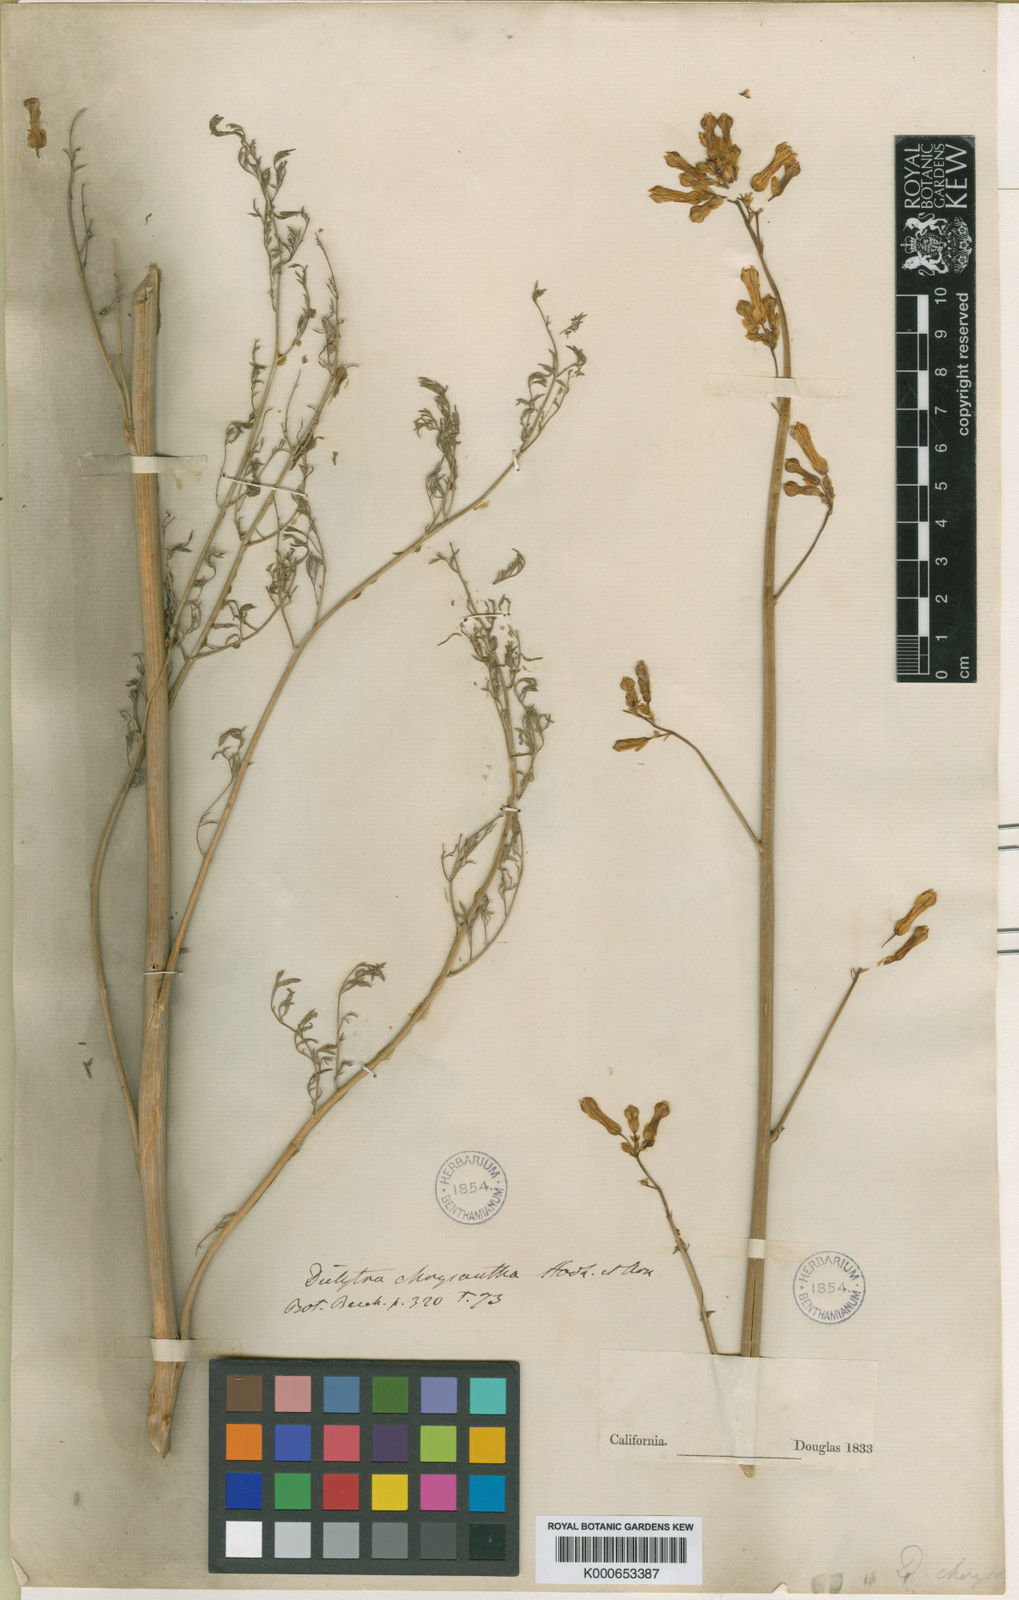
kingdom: Plantae
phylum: Tracheophyta
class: Magnoliopsida
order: Ranunculales
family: Papaveraceae
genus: Ehrendorferia
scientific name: Ehrendorferia chrysantha
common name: Golden eardrops
